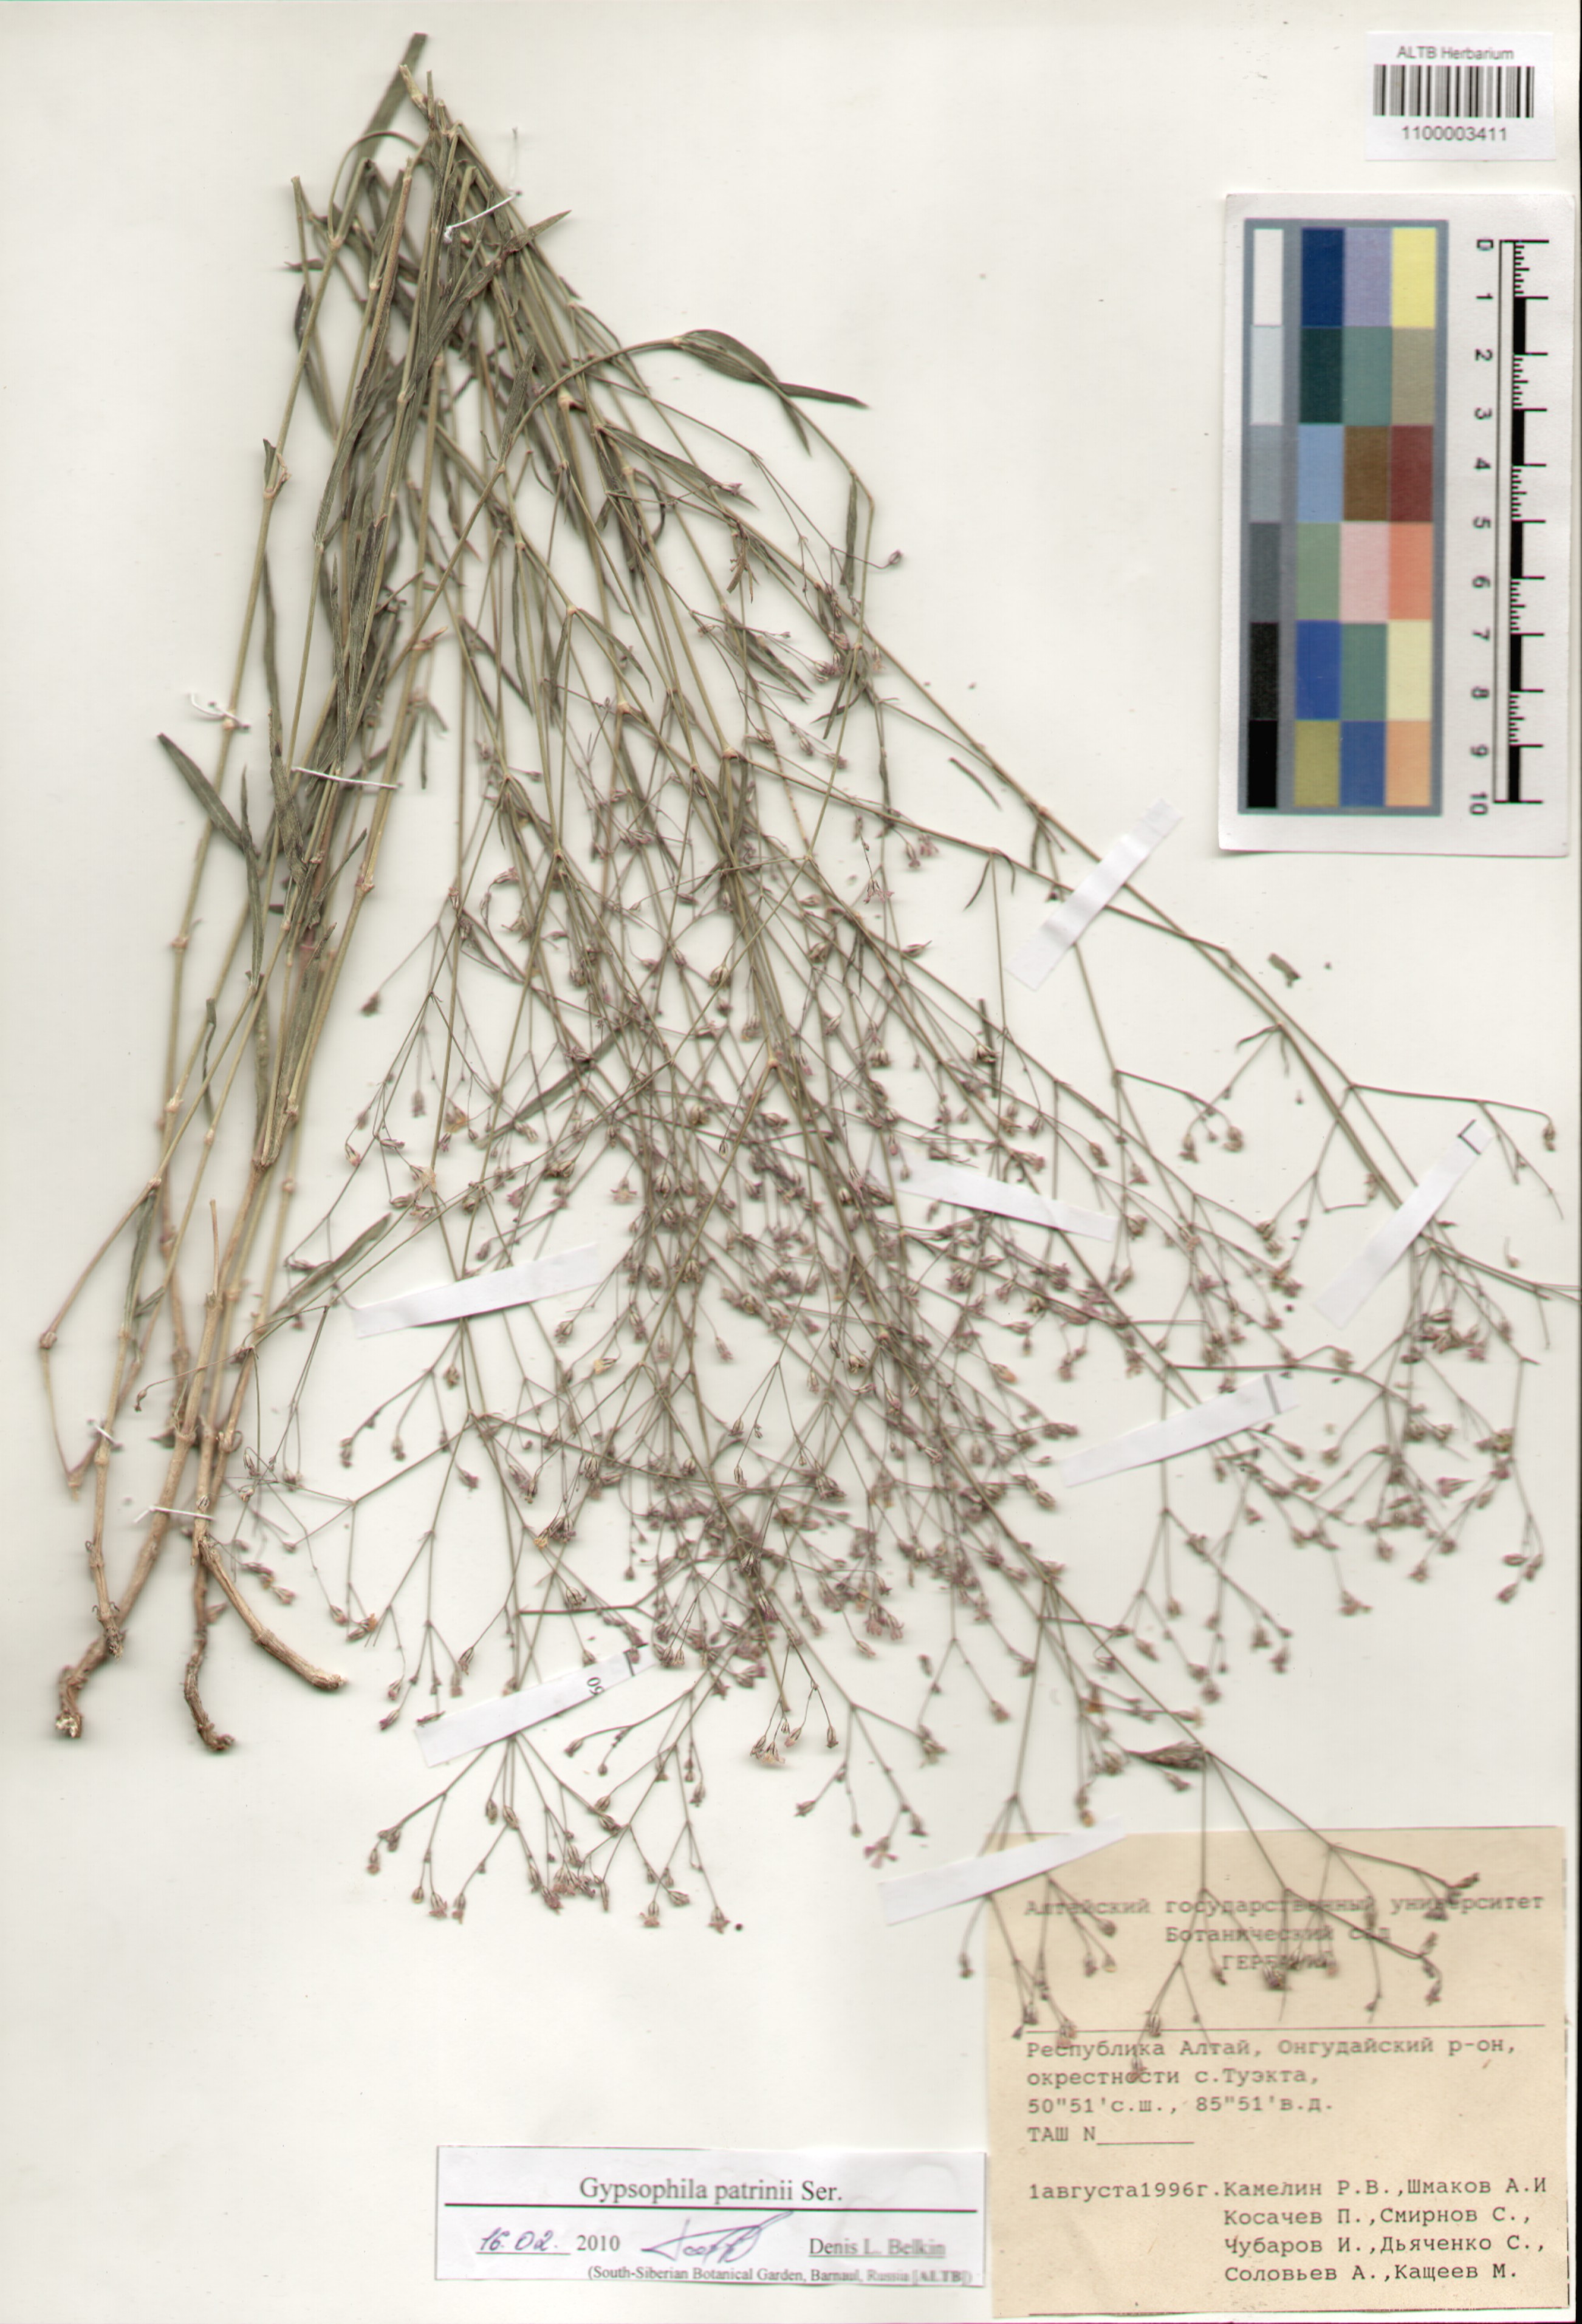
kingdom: Plantae
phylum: Tracheophyta
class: Magnoliopsida
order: Caryophyllales
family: Caryophyllaceae
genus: Gypsophila
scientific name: Gypsophila patrinii
